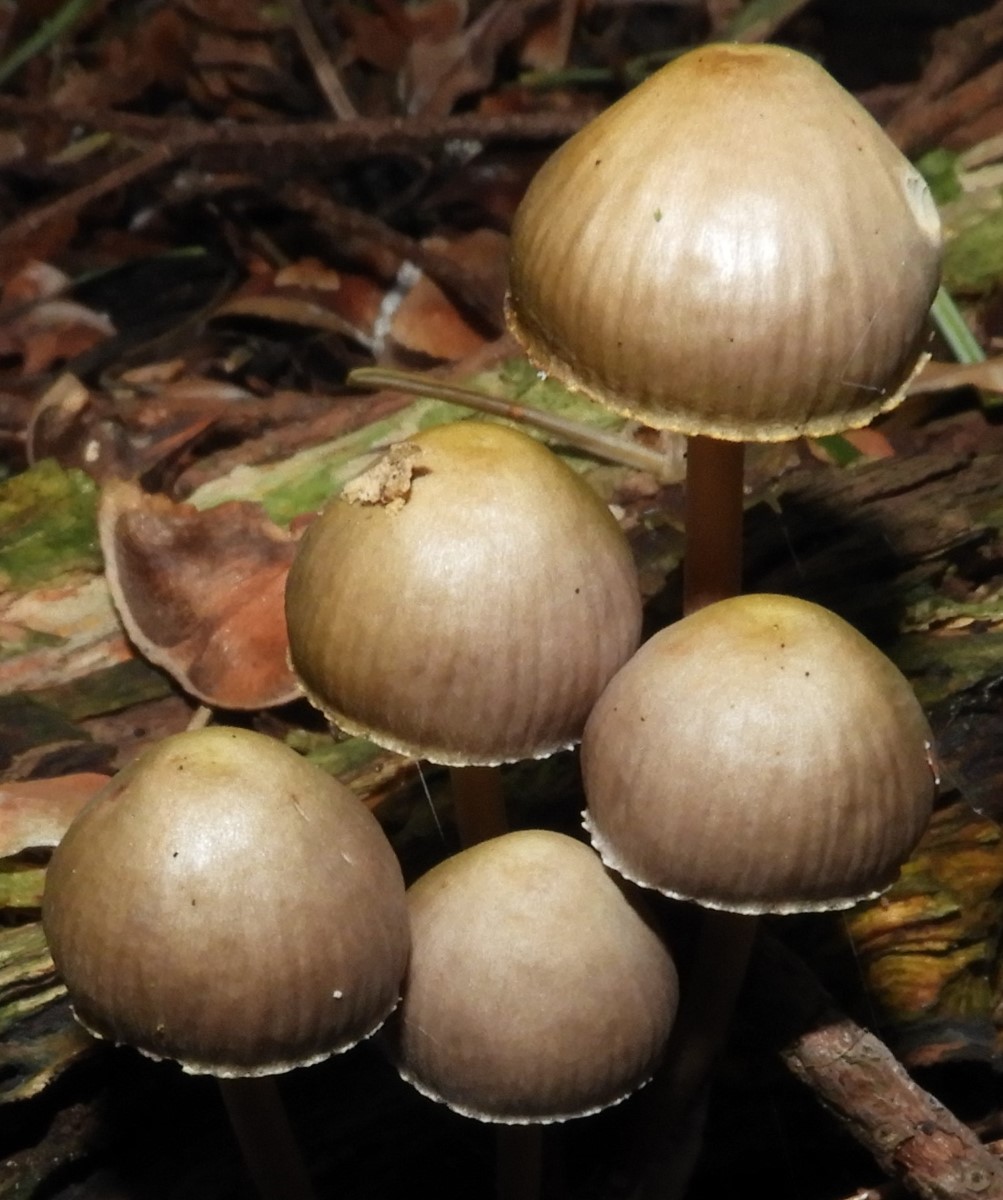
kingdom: Fungi
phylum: Basidiomycota
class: Agaricomycetes
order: Agaricales
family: Mycenaceae
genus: Mycena
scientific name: Mycena inclinata
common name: nikkende huesvamp
